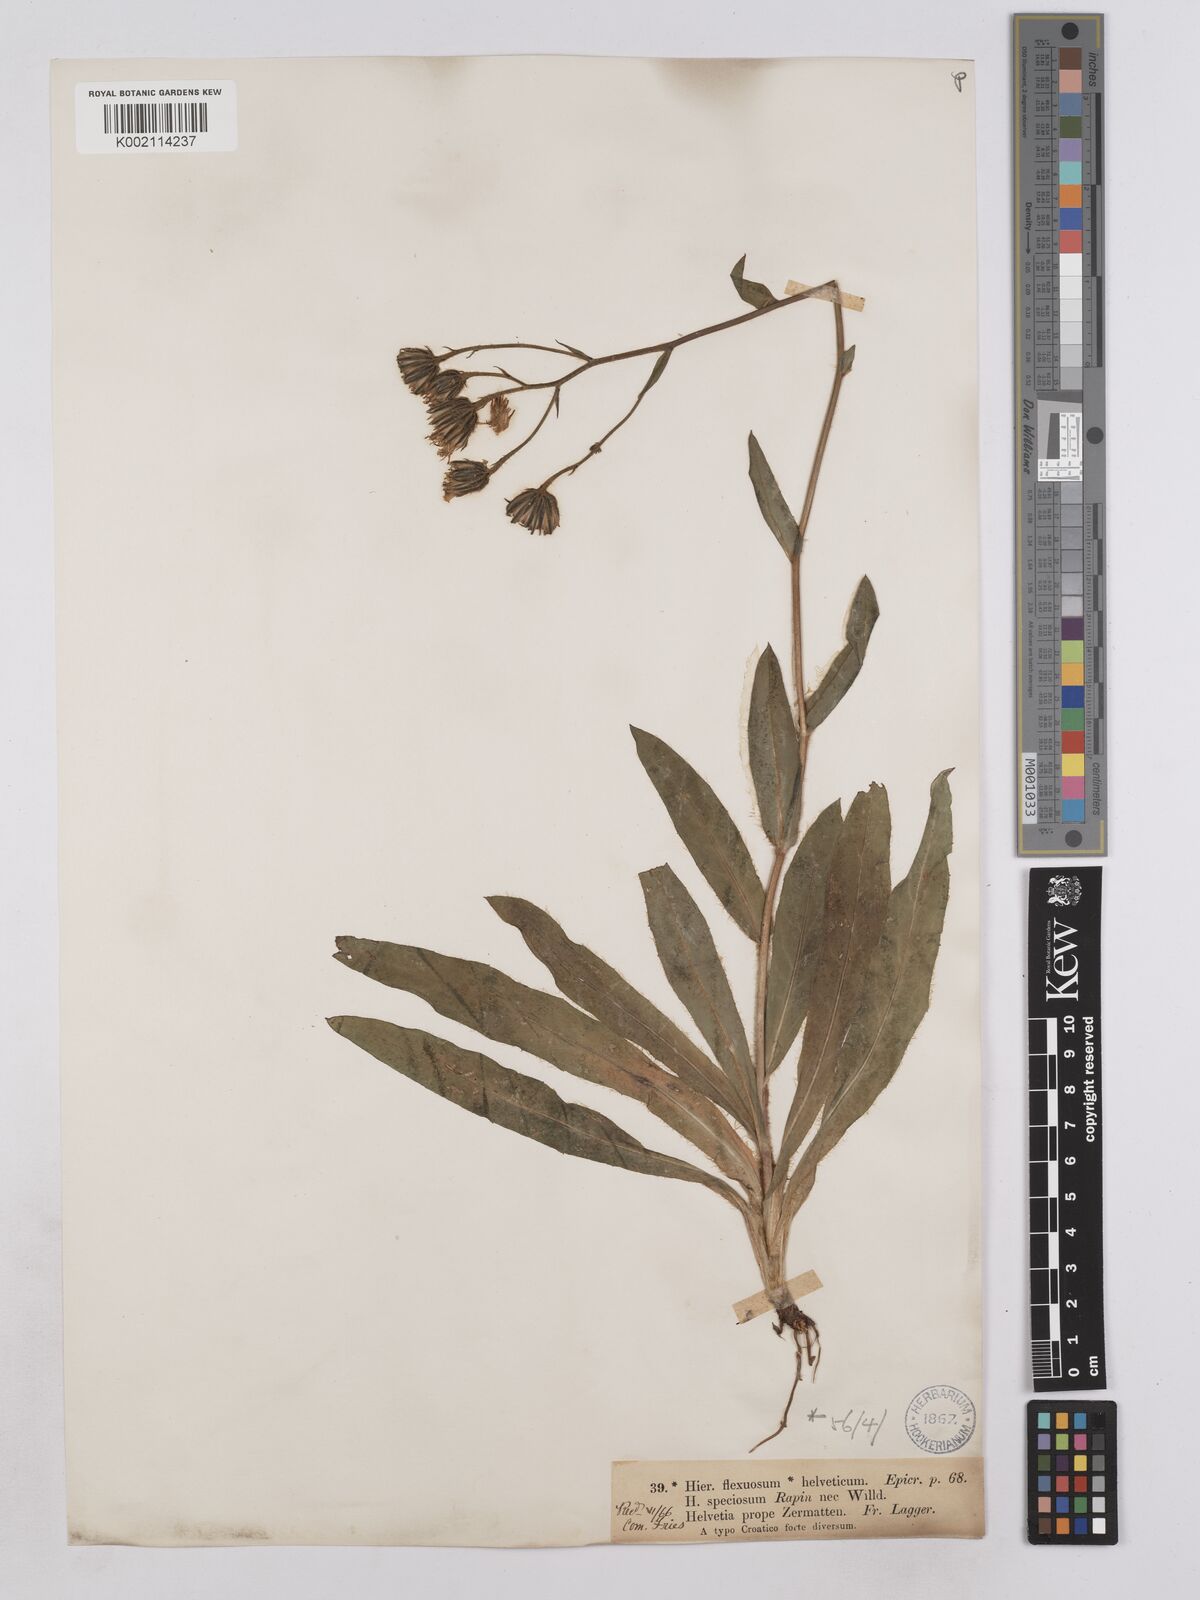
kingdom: Plantae
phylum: Tracheophyta
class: Magnoliopsida
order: Asterales
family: Asteraceae
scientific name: Asteraceae
